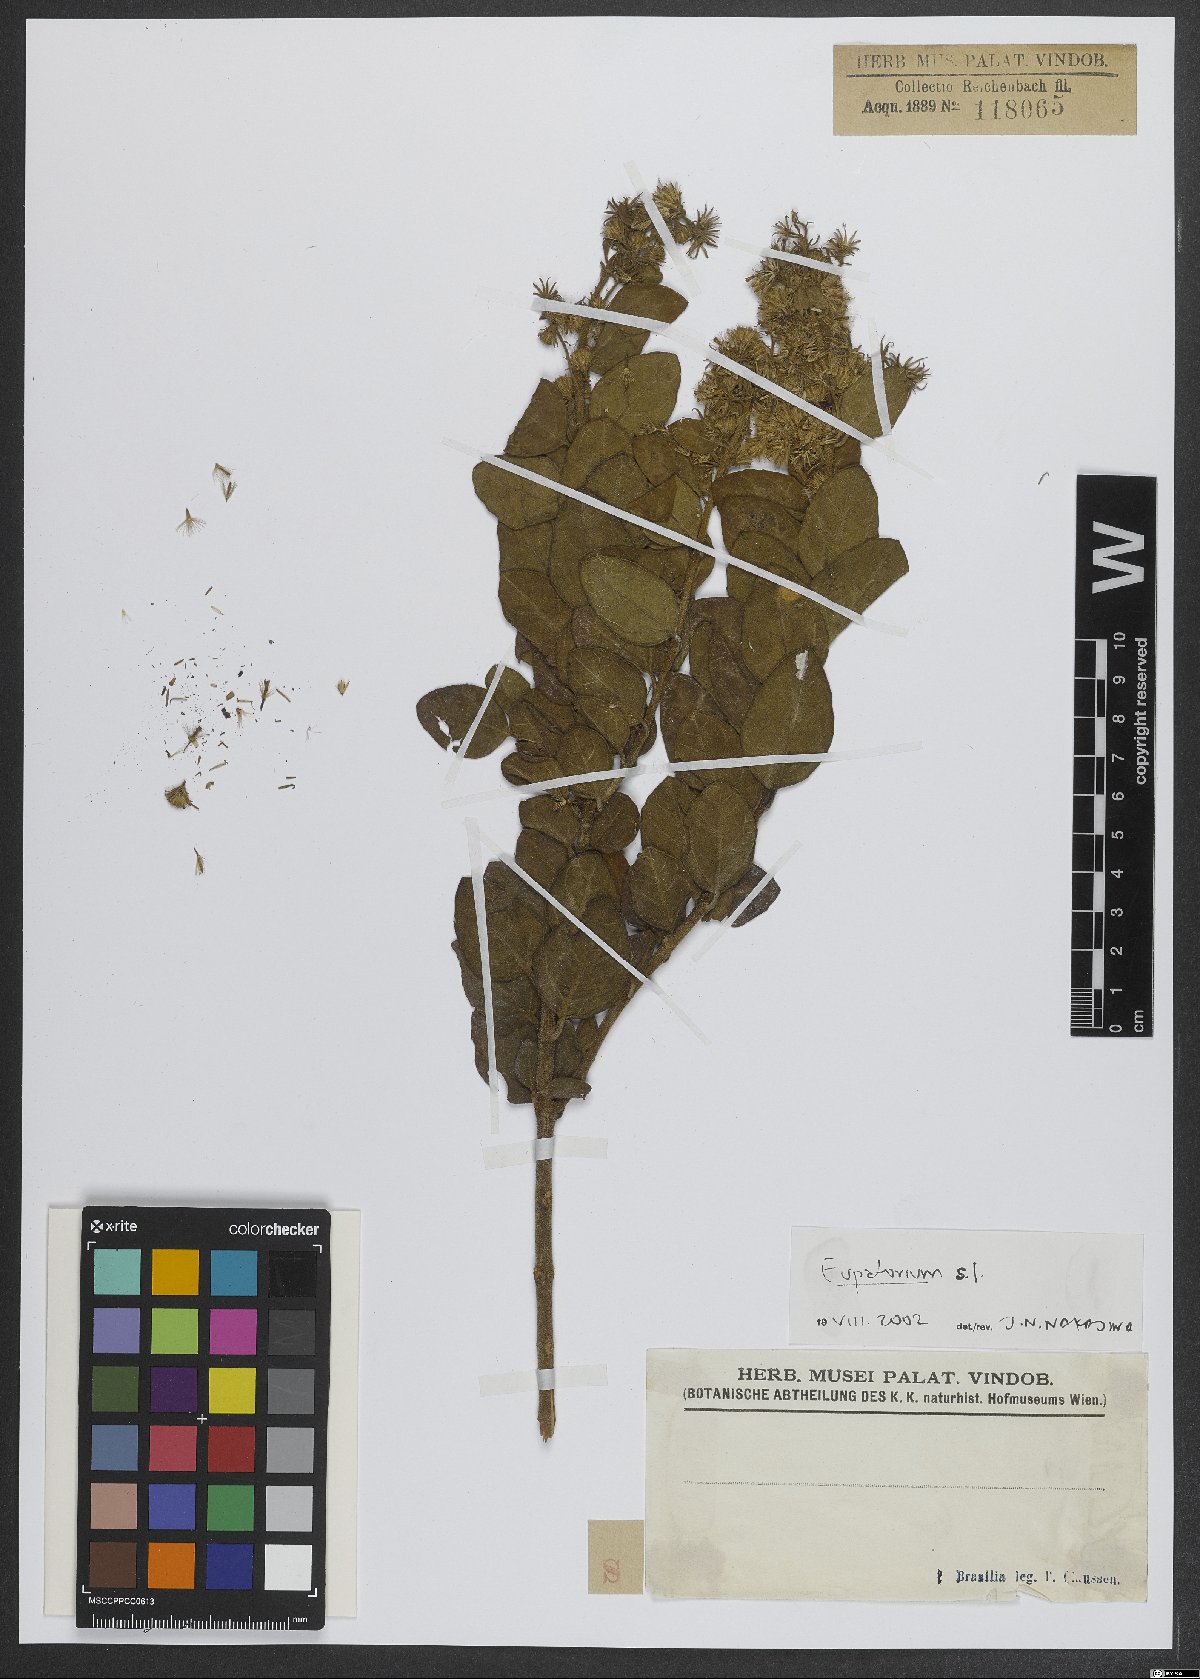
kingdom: Plantae
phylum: Tracheophyta
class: Magnoliopsida
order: Asterales
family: Asteraceae
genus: Eupatorium
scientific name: Eupatorium
